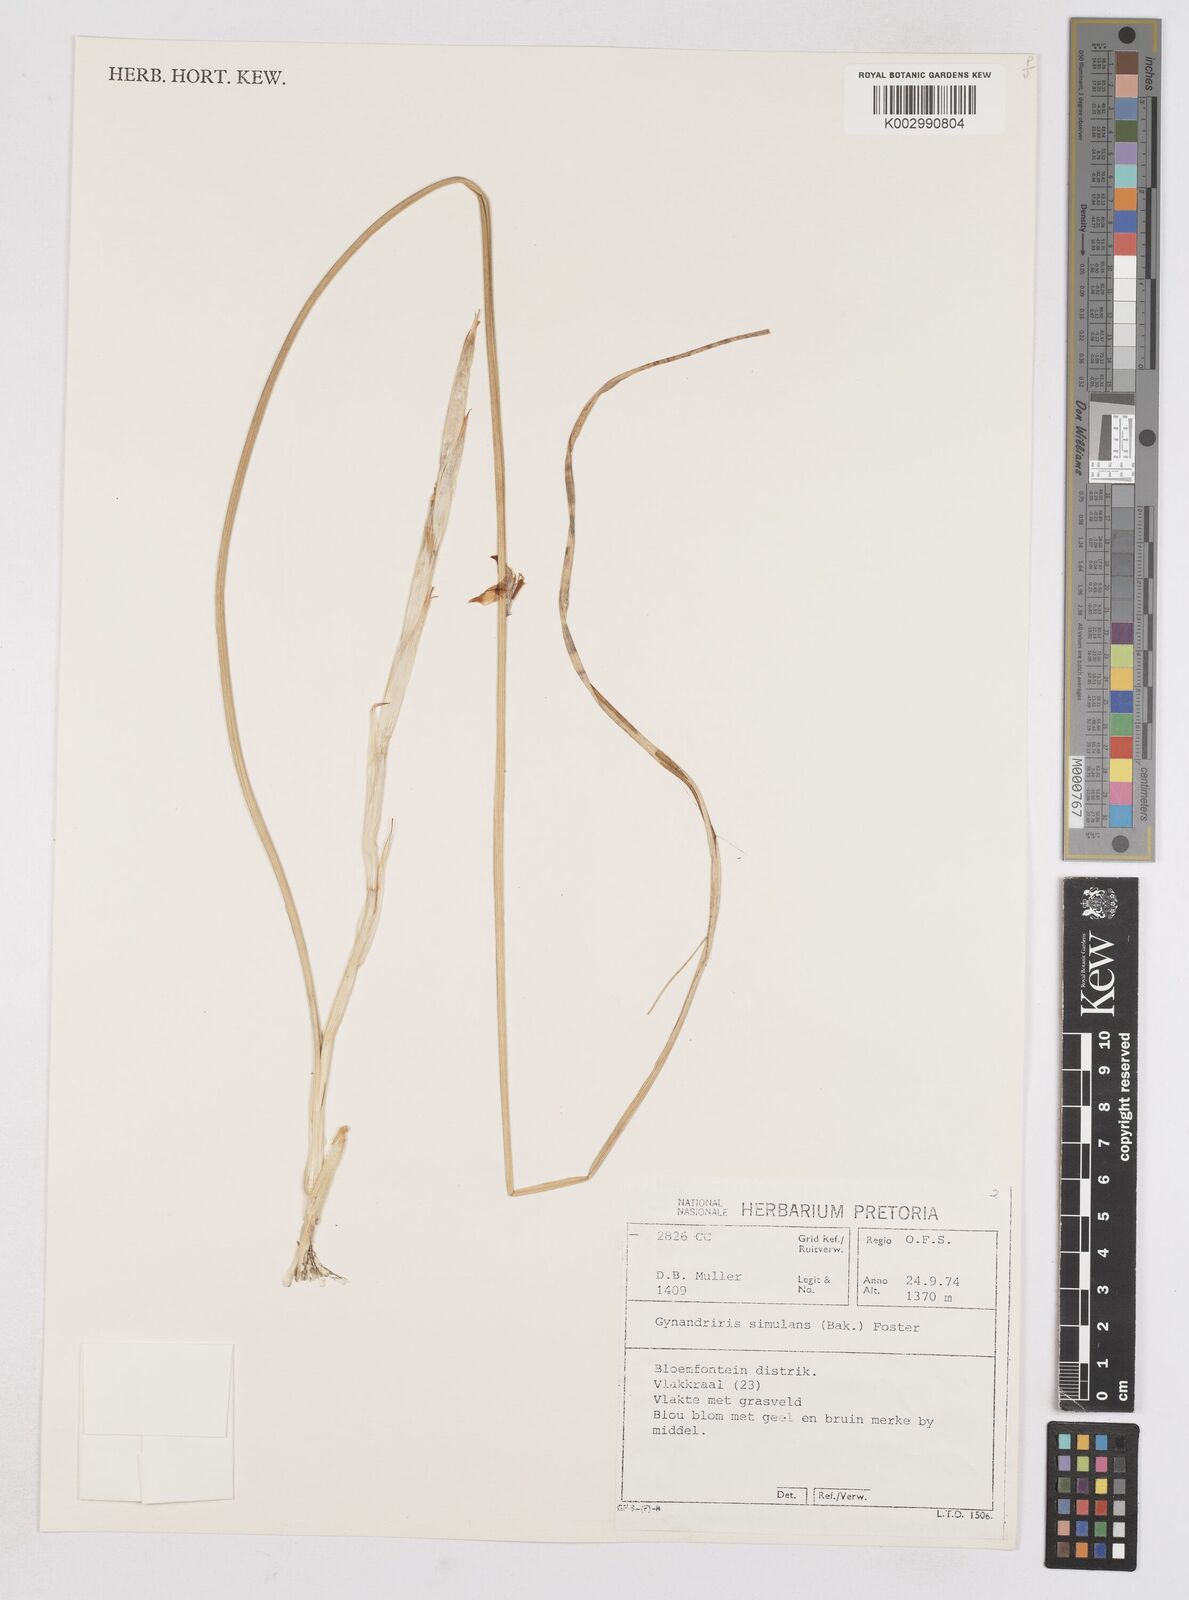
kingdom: Plantae
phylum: Tracheophyta
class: Liliopsida
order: Asparagales
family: Iridaceae
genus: Moraea
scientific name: Moraea simulans
